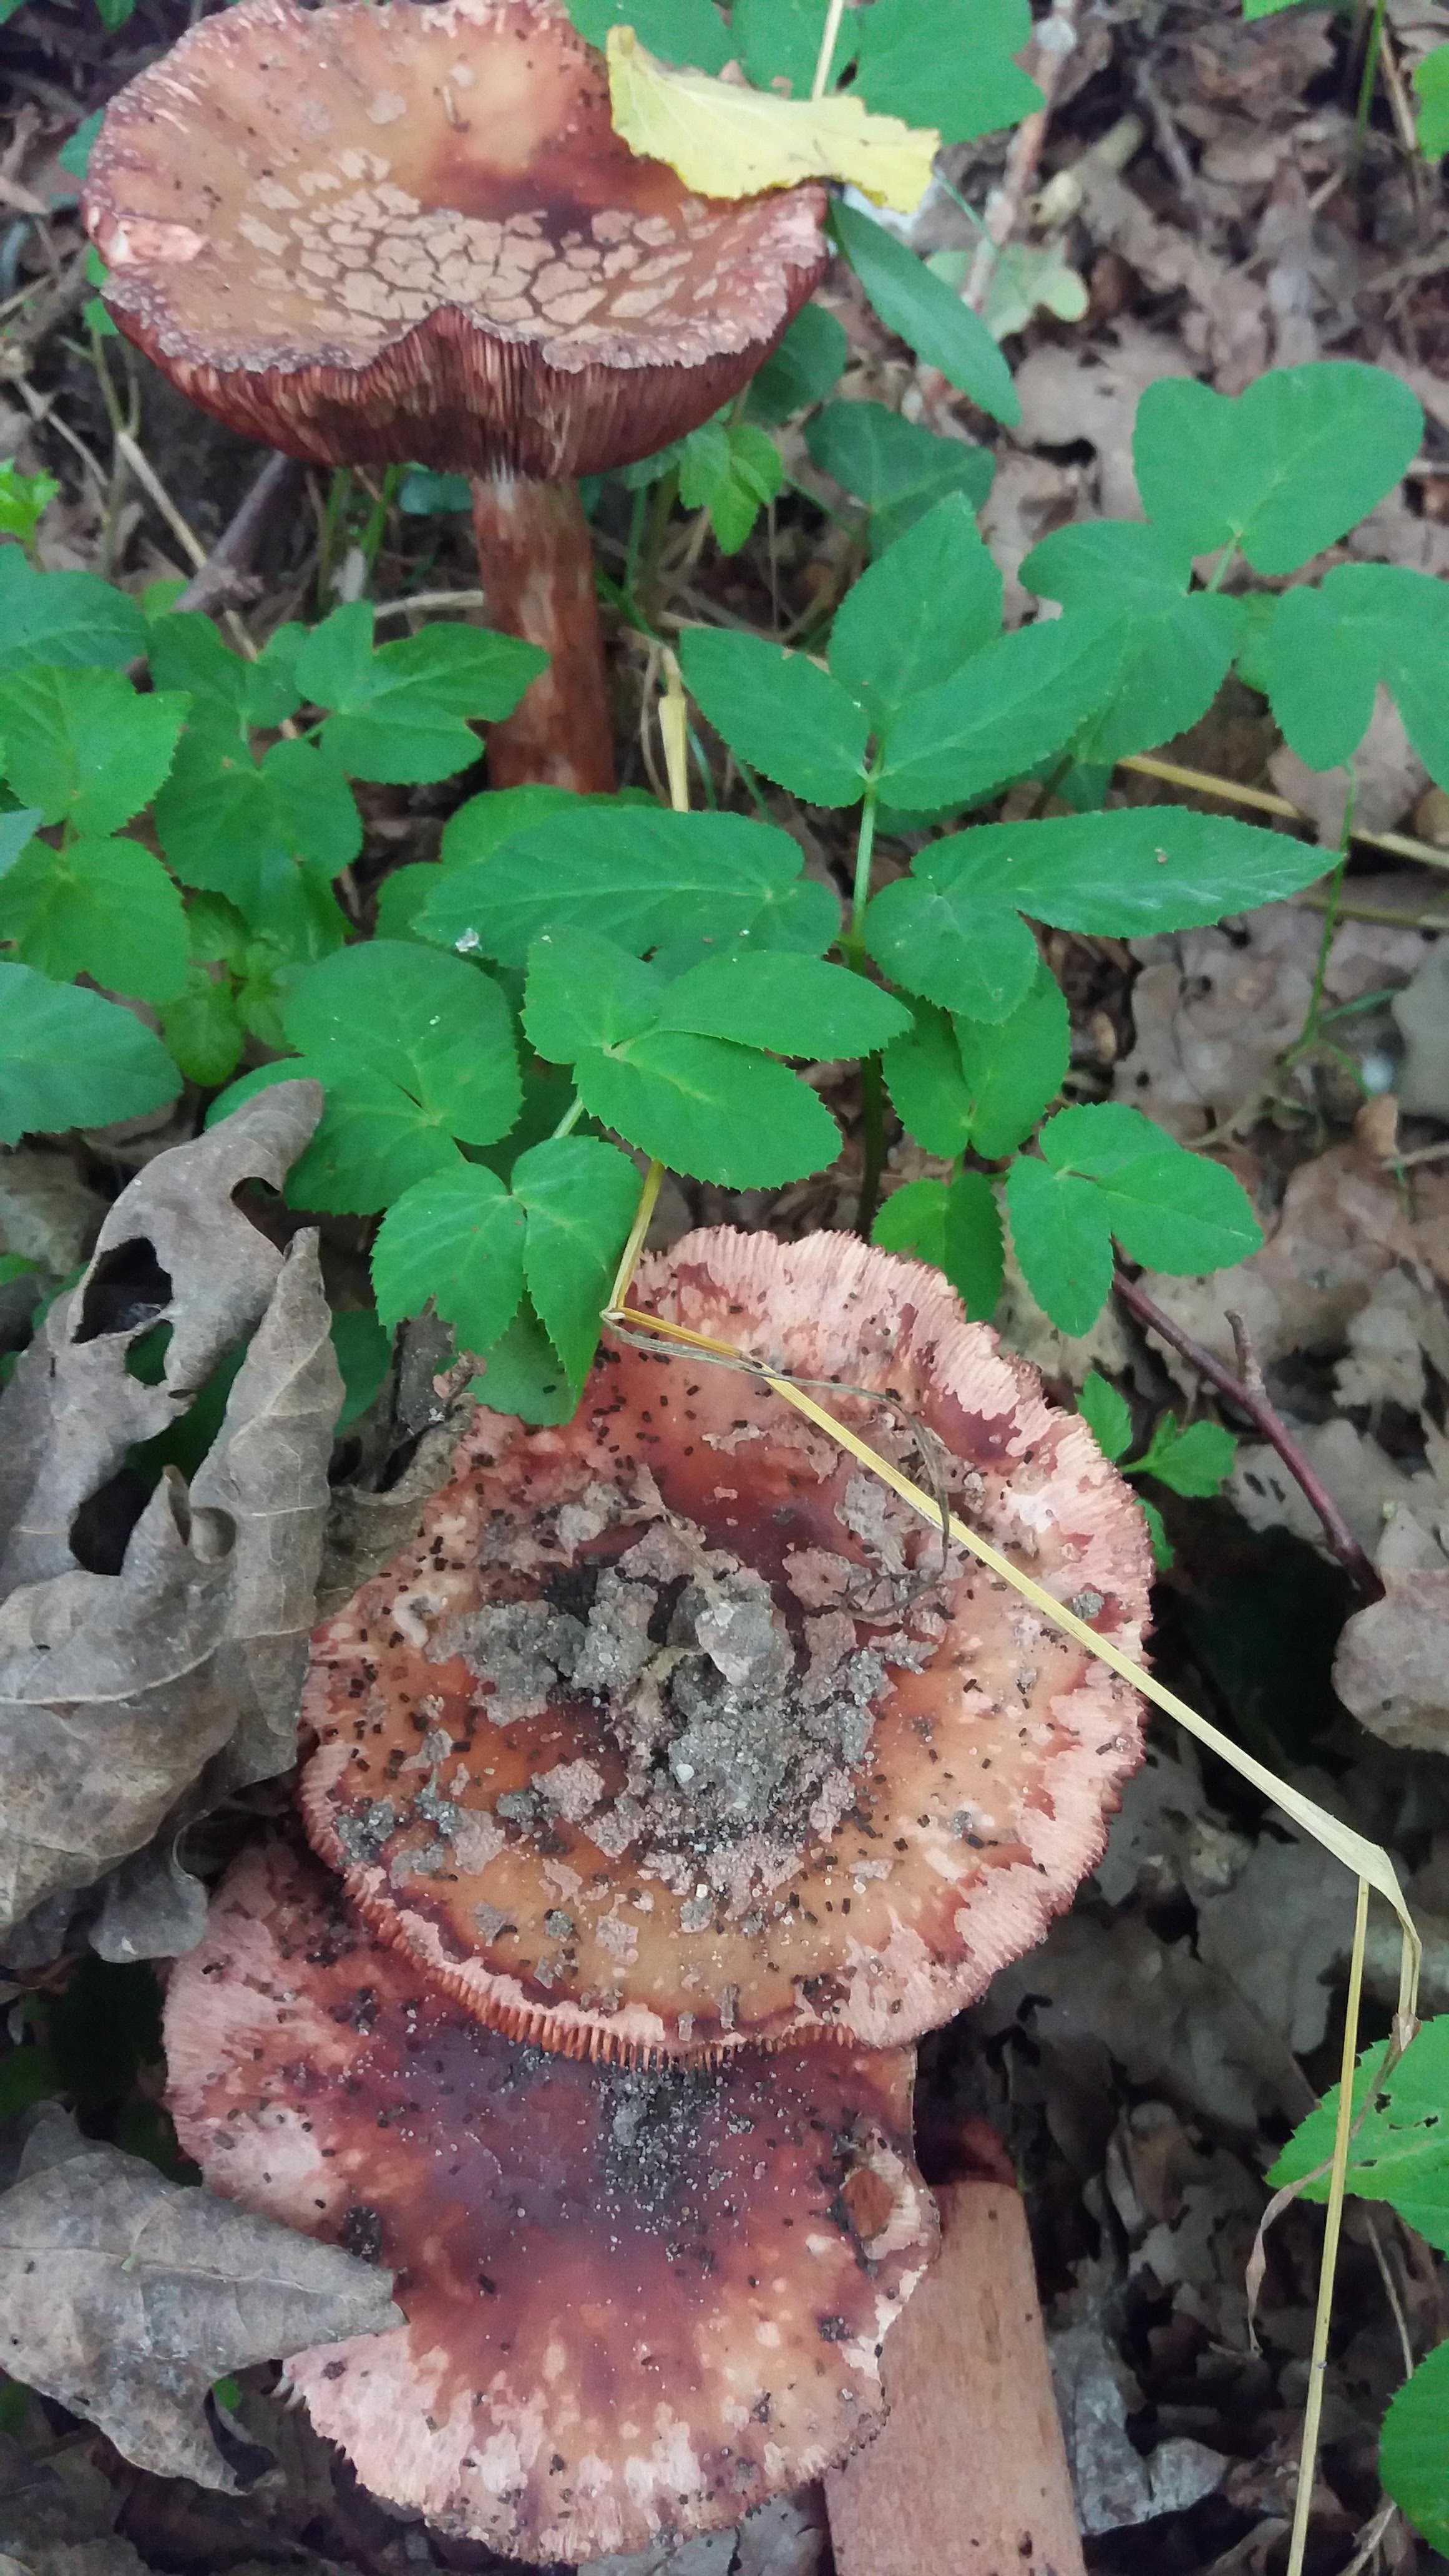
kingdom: Fungi
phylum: Basidiomycota
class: Agaricomycetes
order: Agaricales
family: Amanitaceae
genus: Amanita
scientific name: Amanita rubescens
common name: rødmende fluesvamp
